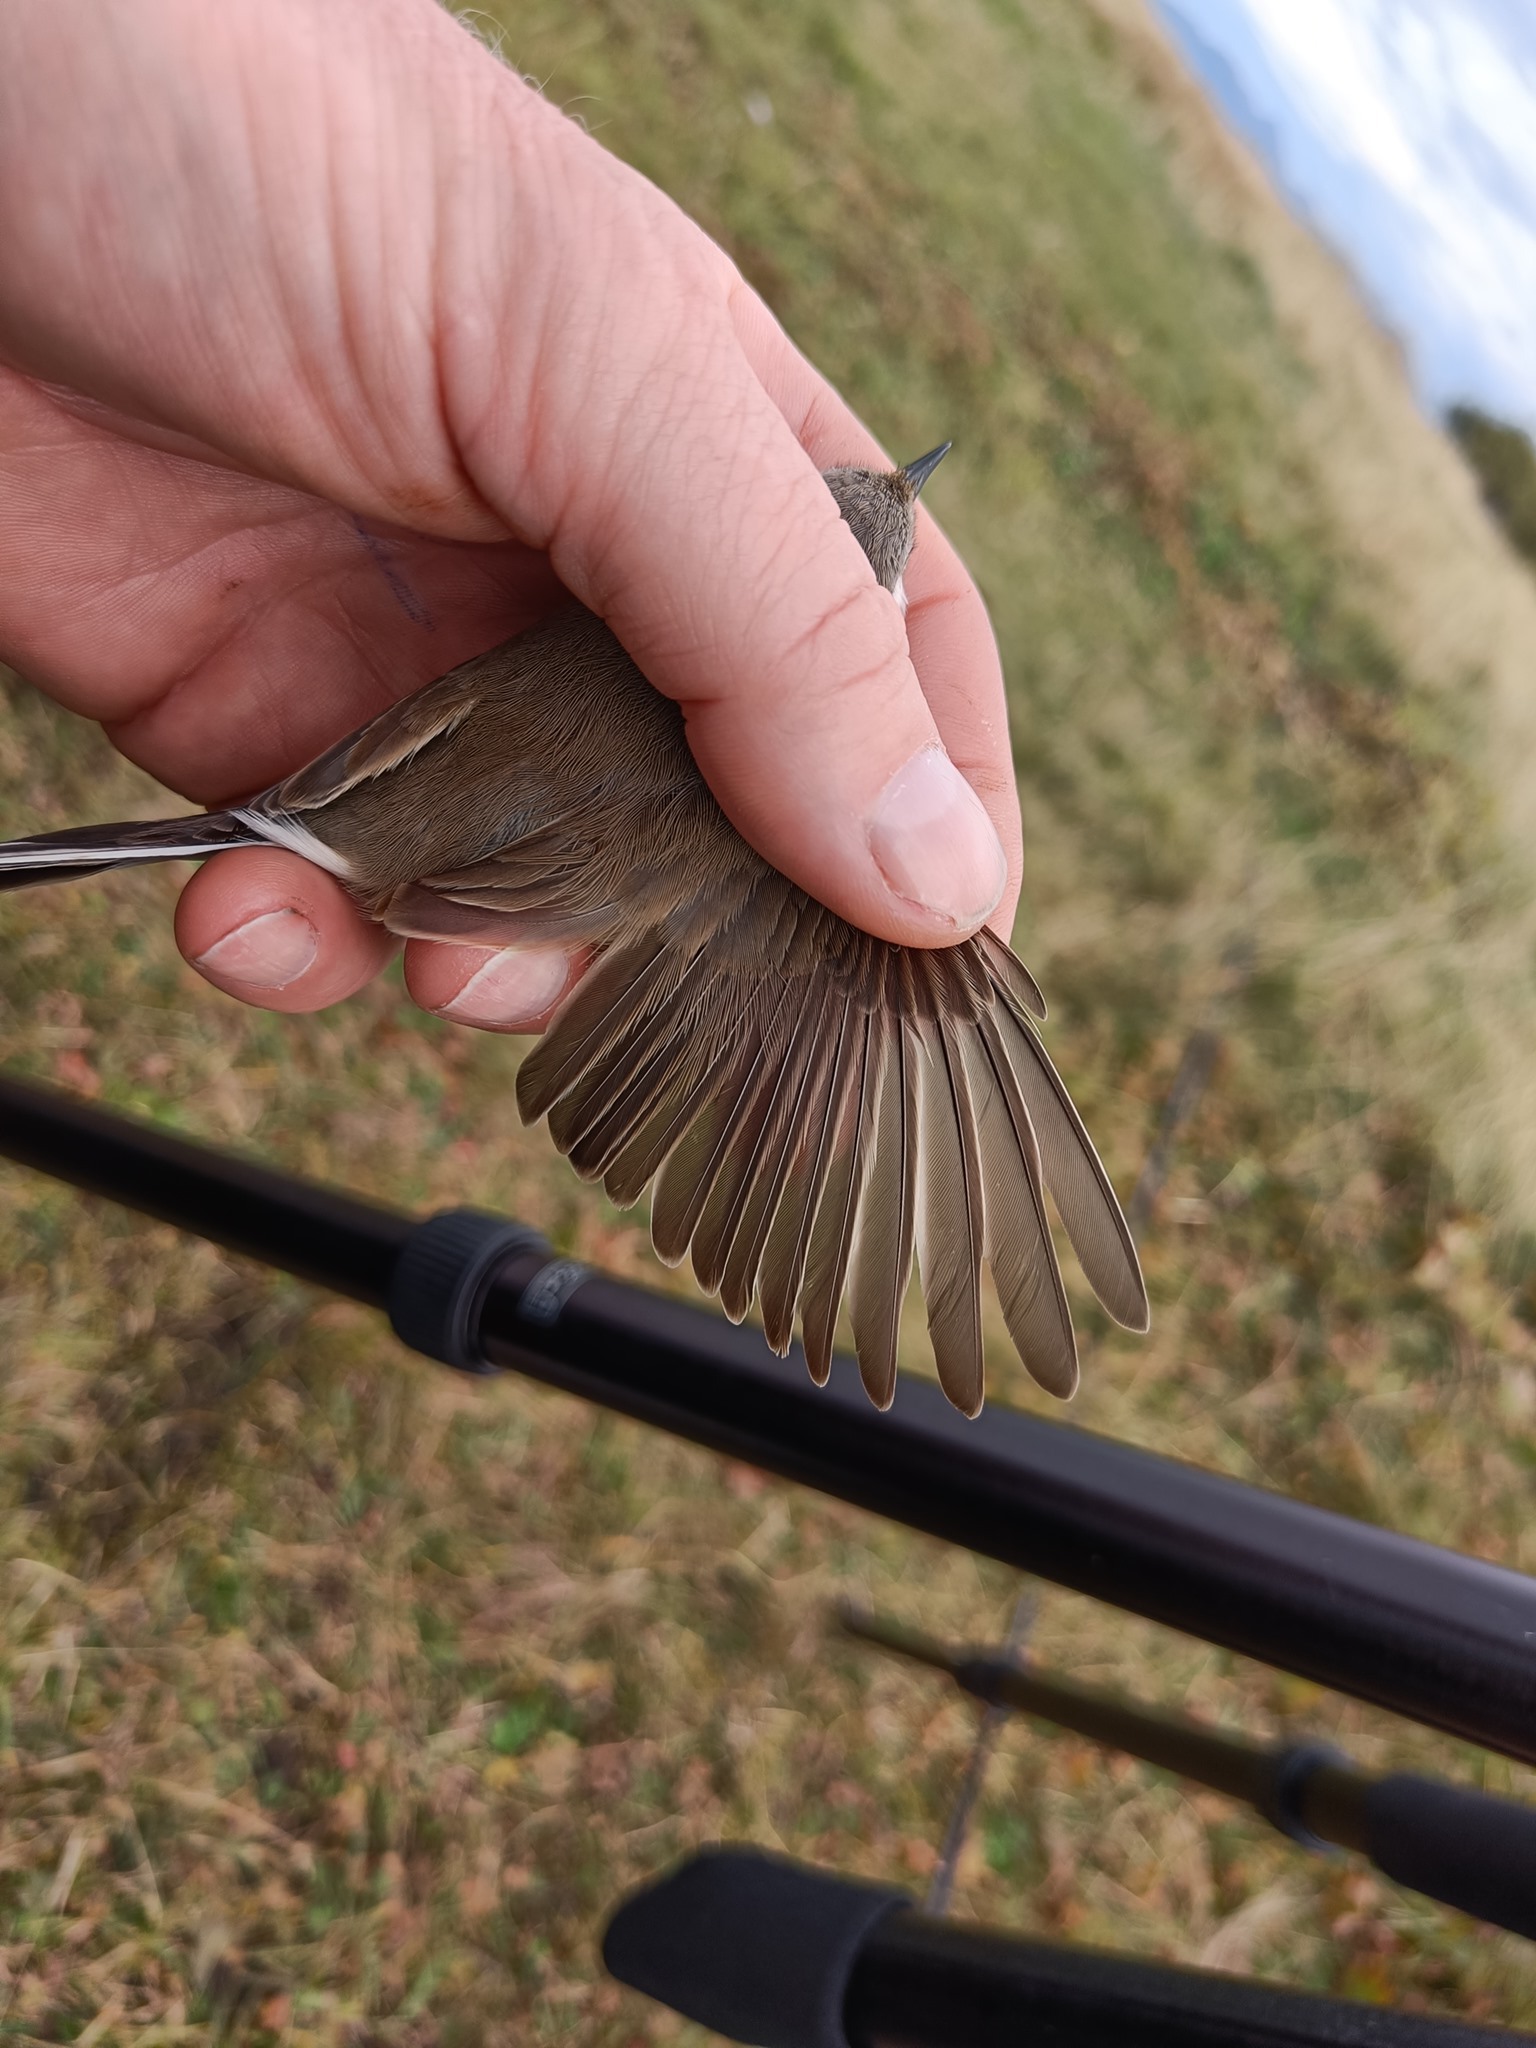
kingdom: Animalia
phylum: Chordata
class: Aves
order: Passeriformes
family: Sylviidae
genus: Sylvia
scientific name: Sylvia curruca
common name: Lesser whitethroat
